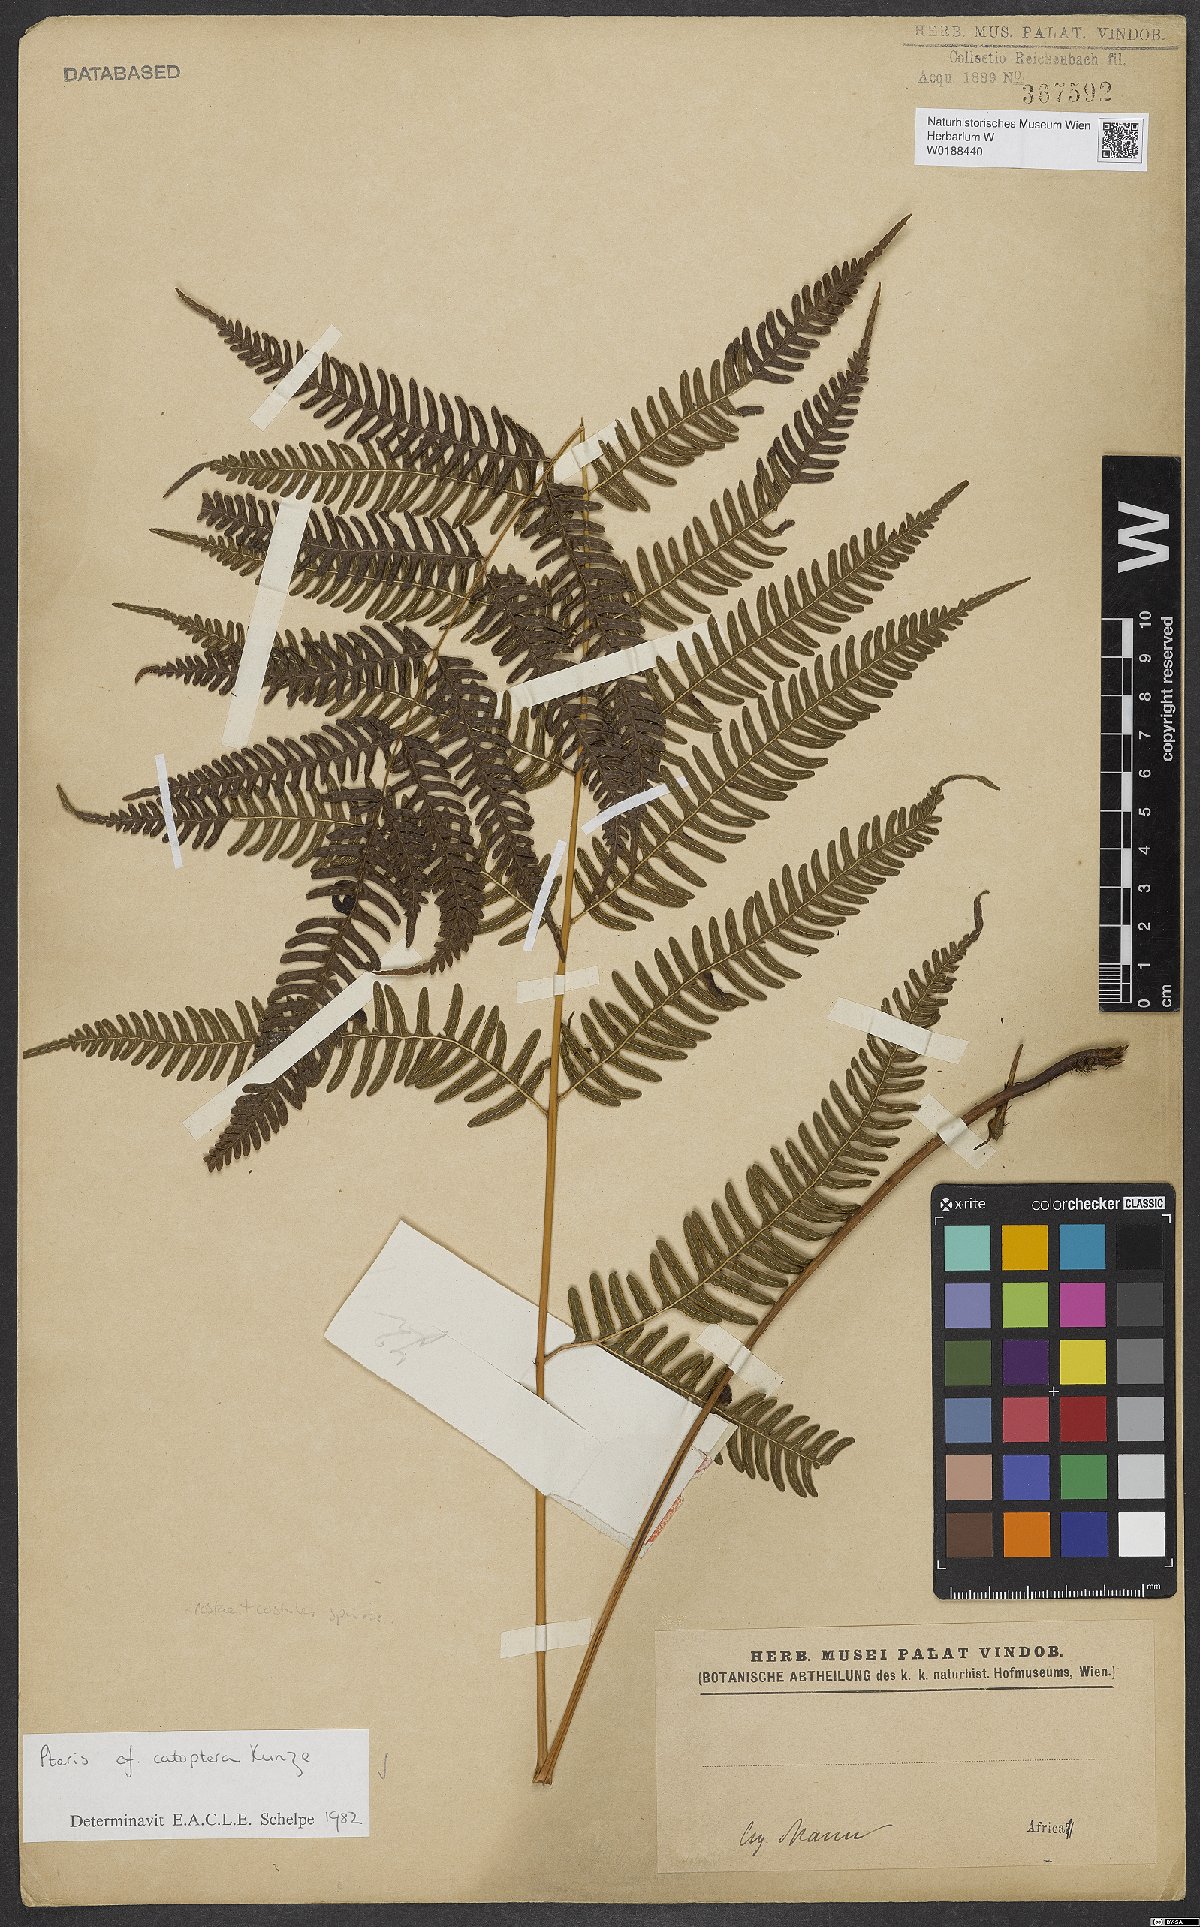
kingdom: Plantae
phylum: Tracheophyta
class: Polypodiopsida
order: Polypodiales
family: Pteridaceae
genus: Pteris
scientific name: Pteris catoptera
